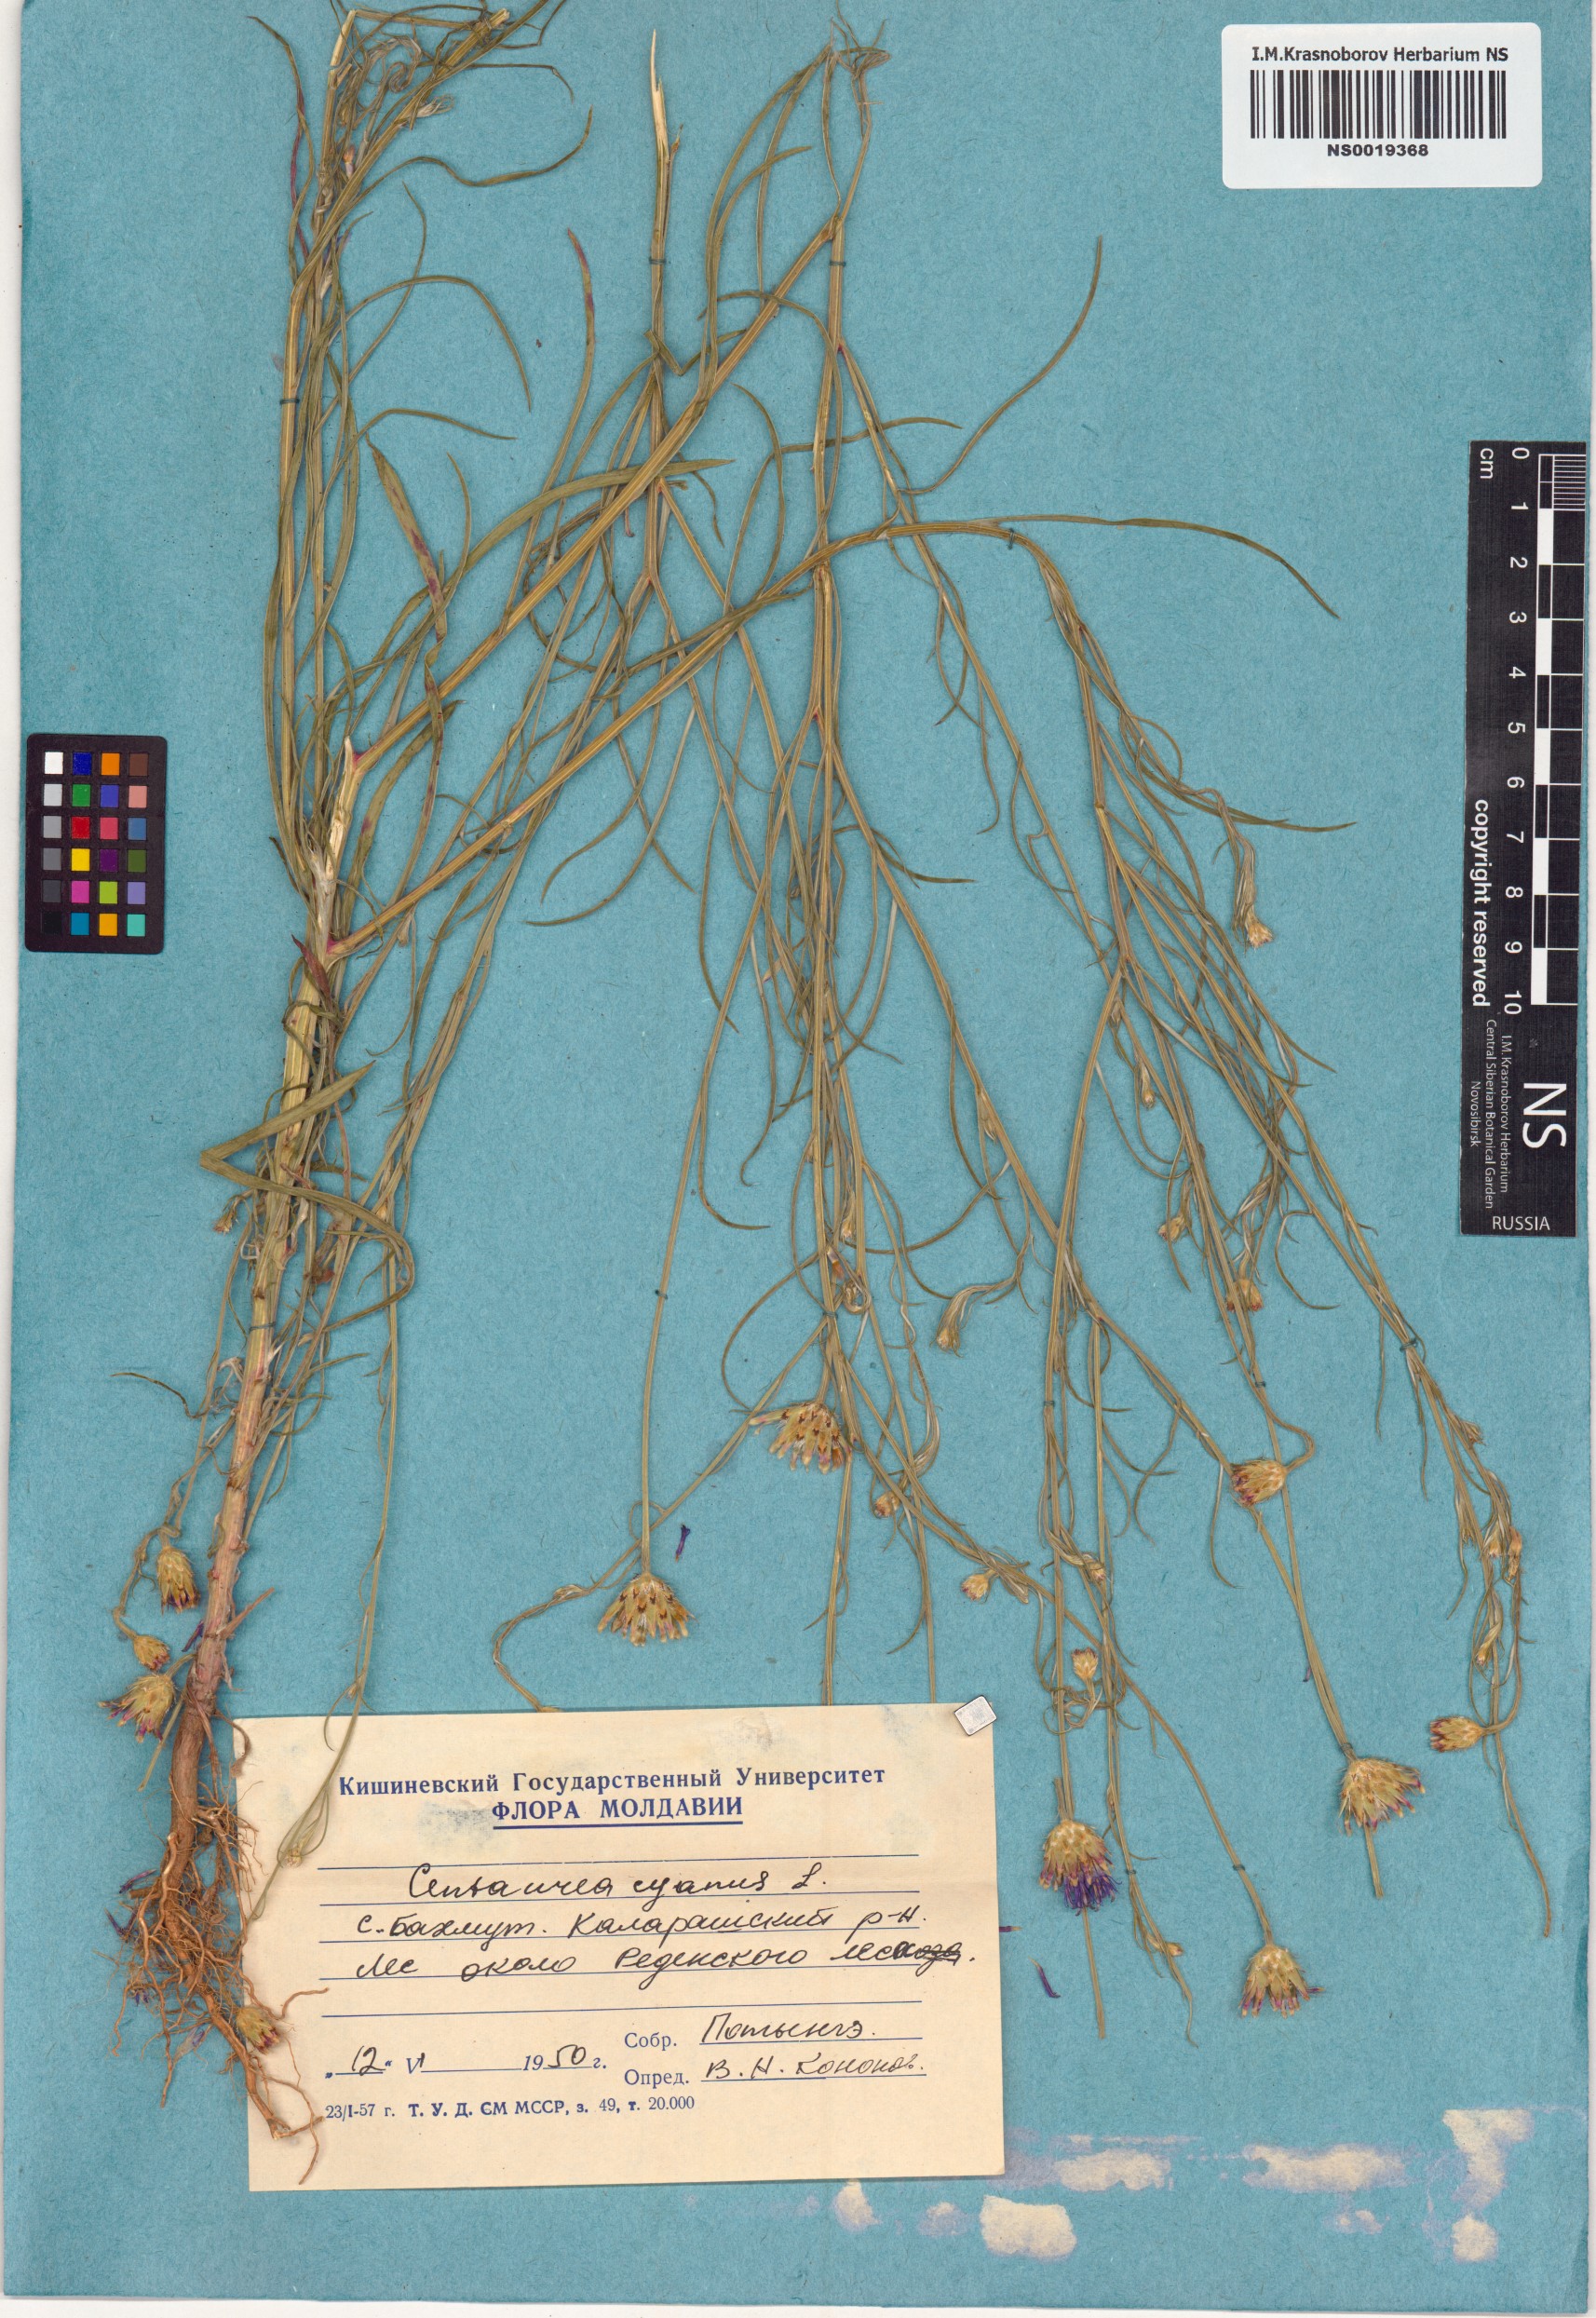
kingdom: Plantae
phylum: Tracheophyta
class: Magnoliopsida
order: Asterales
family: Asteraceae
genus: Centaurea
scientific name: Centaurea cyanus
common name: Cornflower
